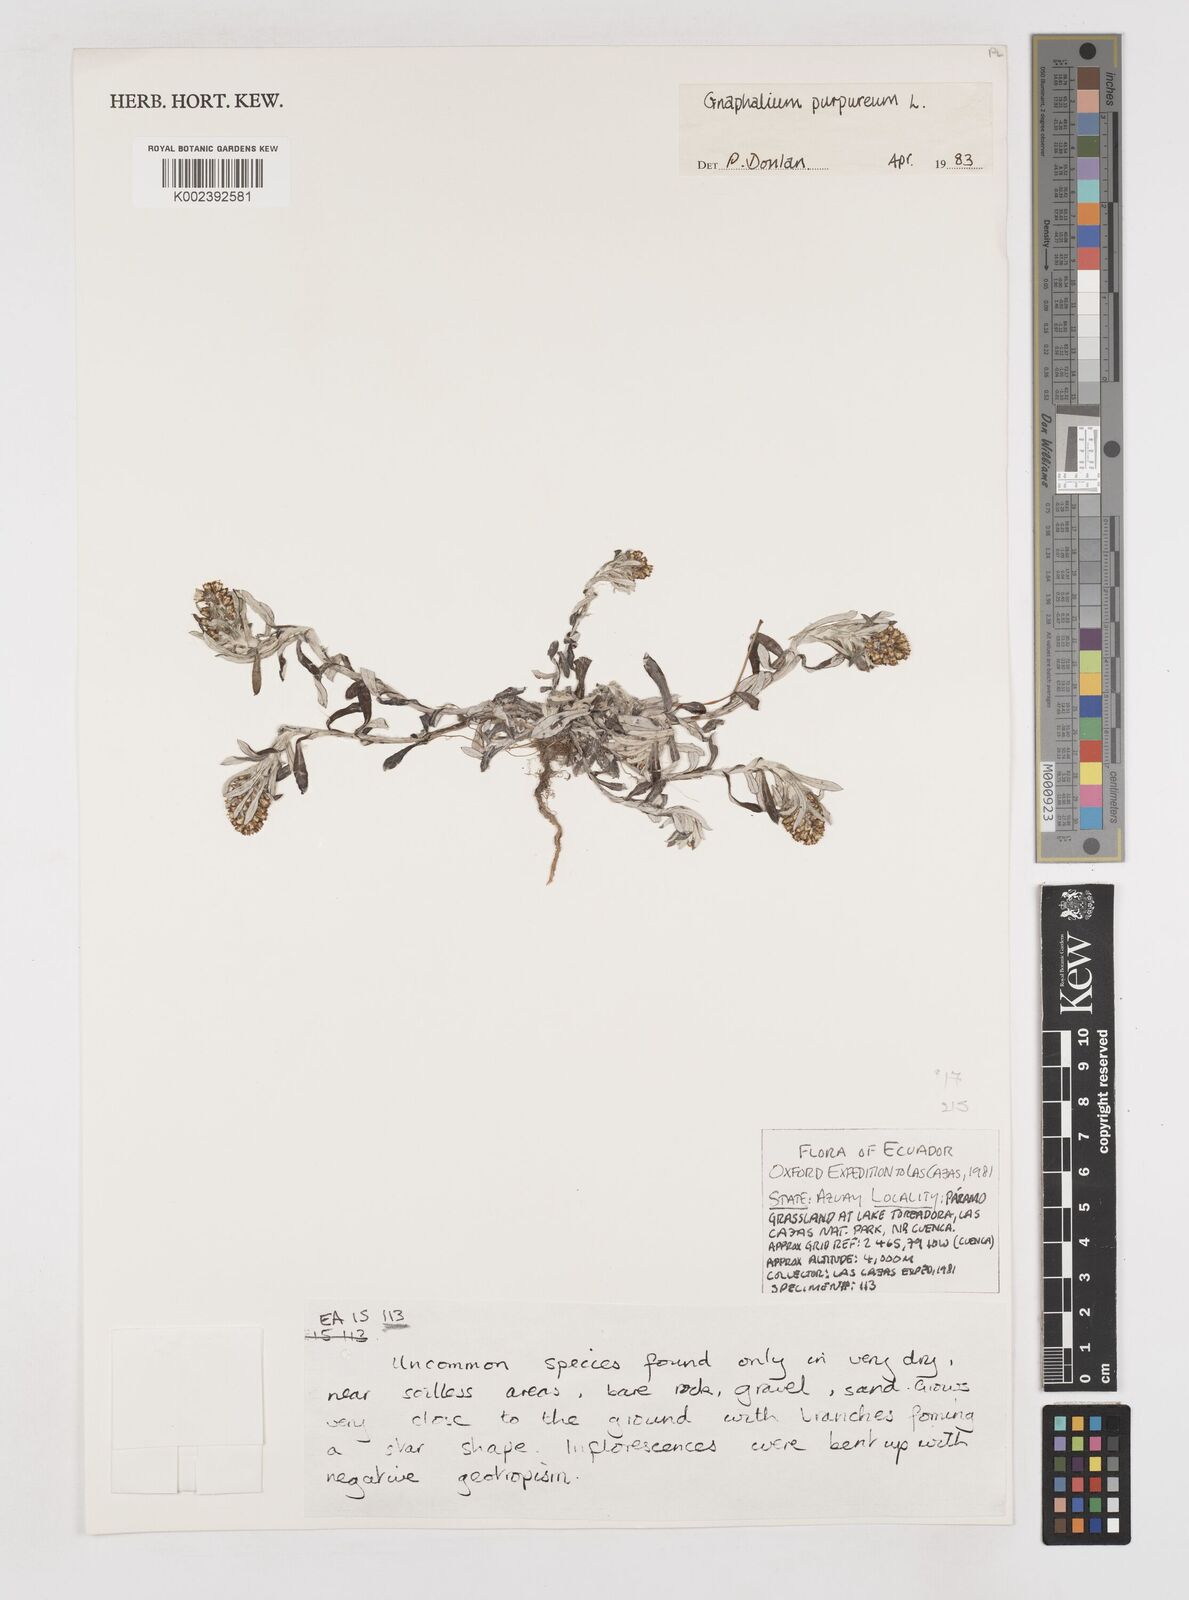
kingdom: Plantae
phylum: Tracheophyta
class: Magnoliopsida
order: Asterales
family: Asteraceae
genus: Pseudognaphalium
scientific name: Pseudognaphalium purpurascens
